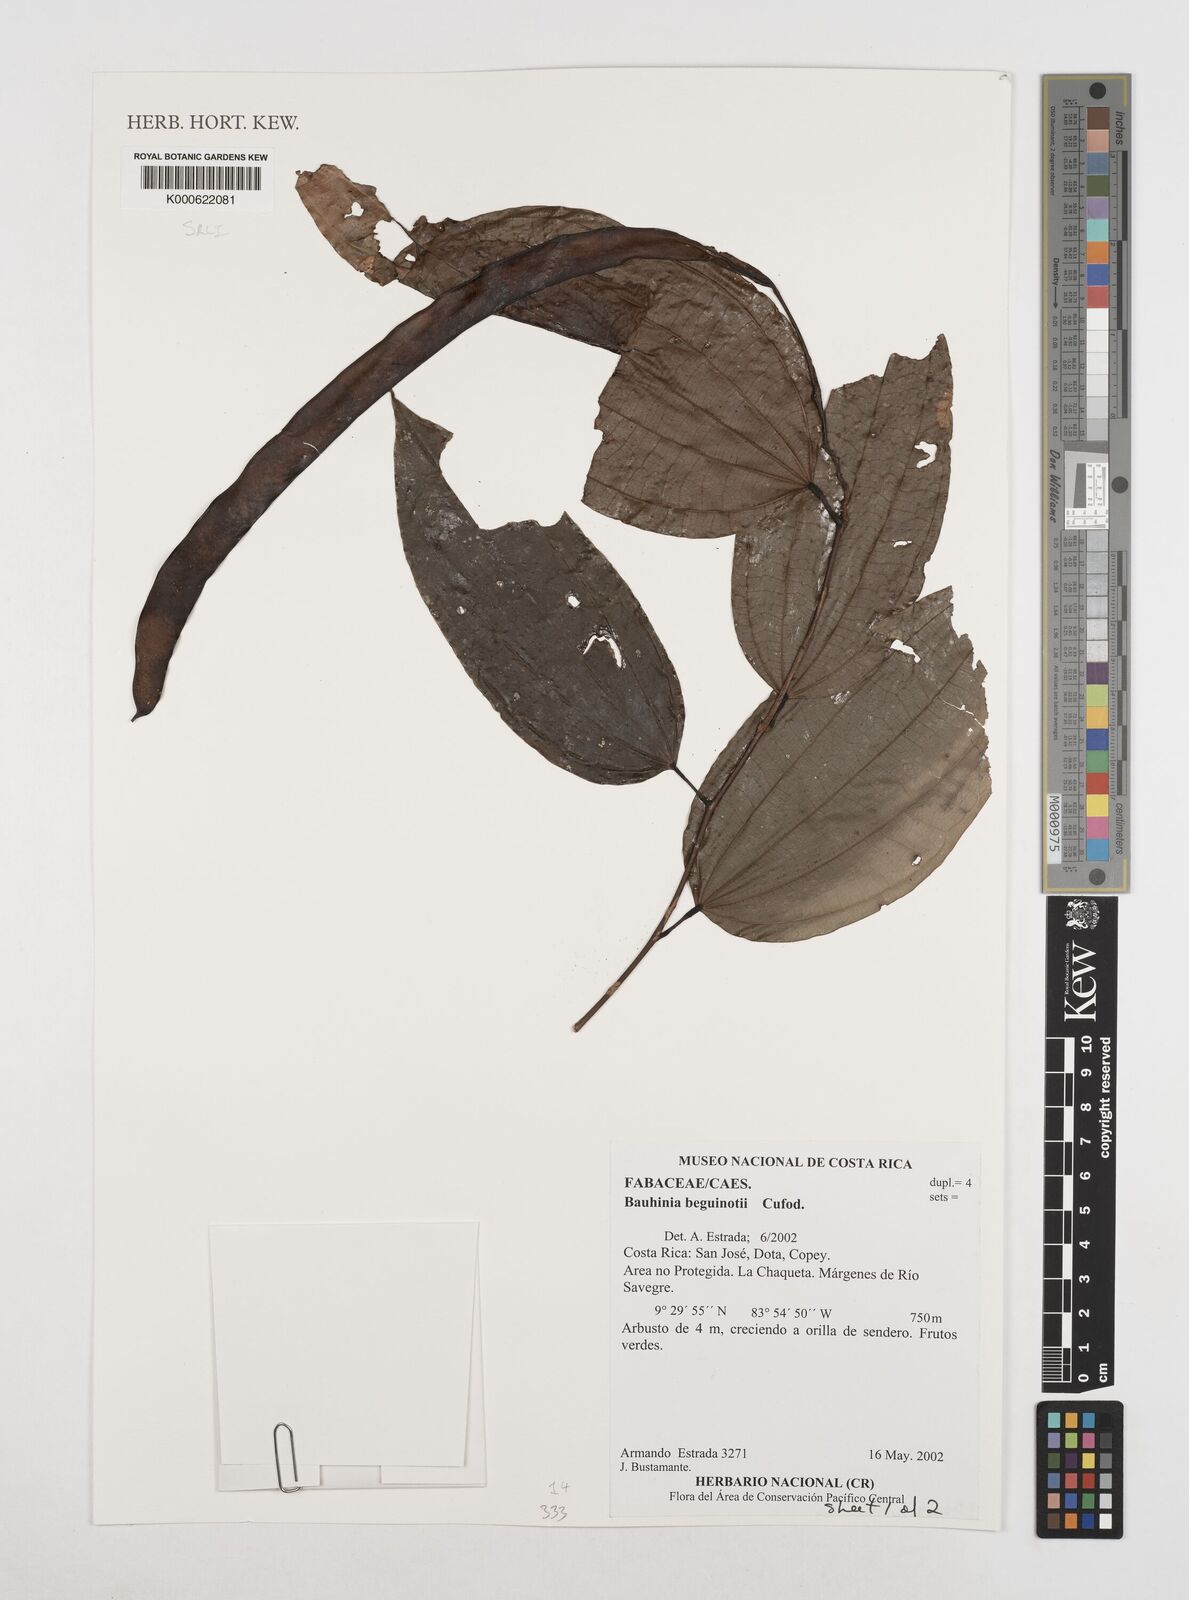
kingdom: Plantae
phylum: Tracheophyta
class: Magnoliopsida
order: Fabales
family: Fabaceae
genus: Bauhinia
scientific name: Bauhinia beguinotii
